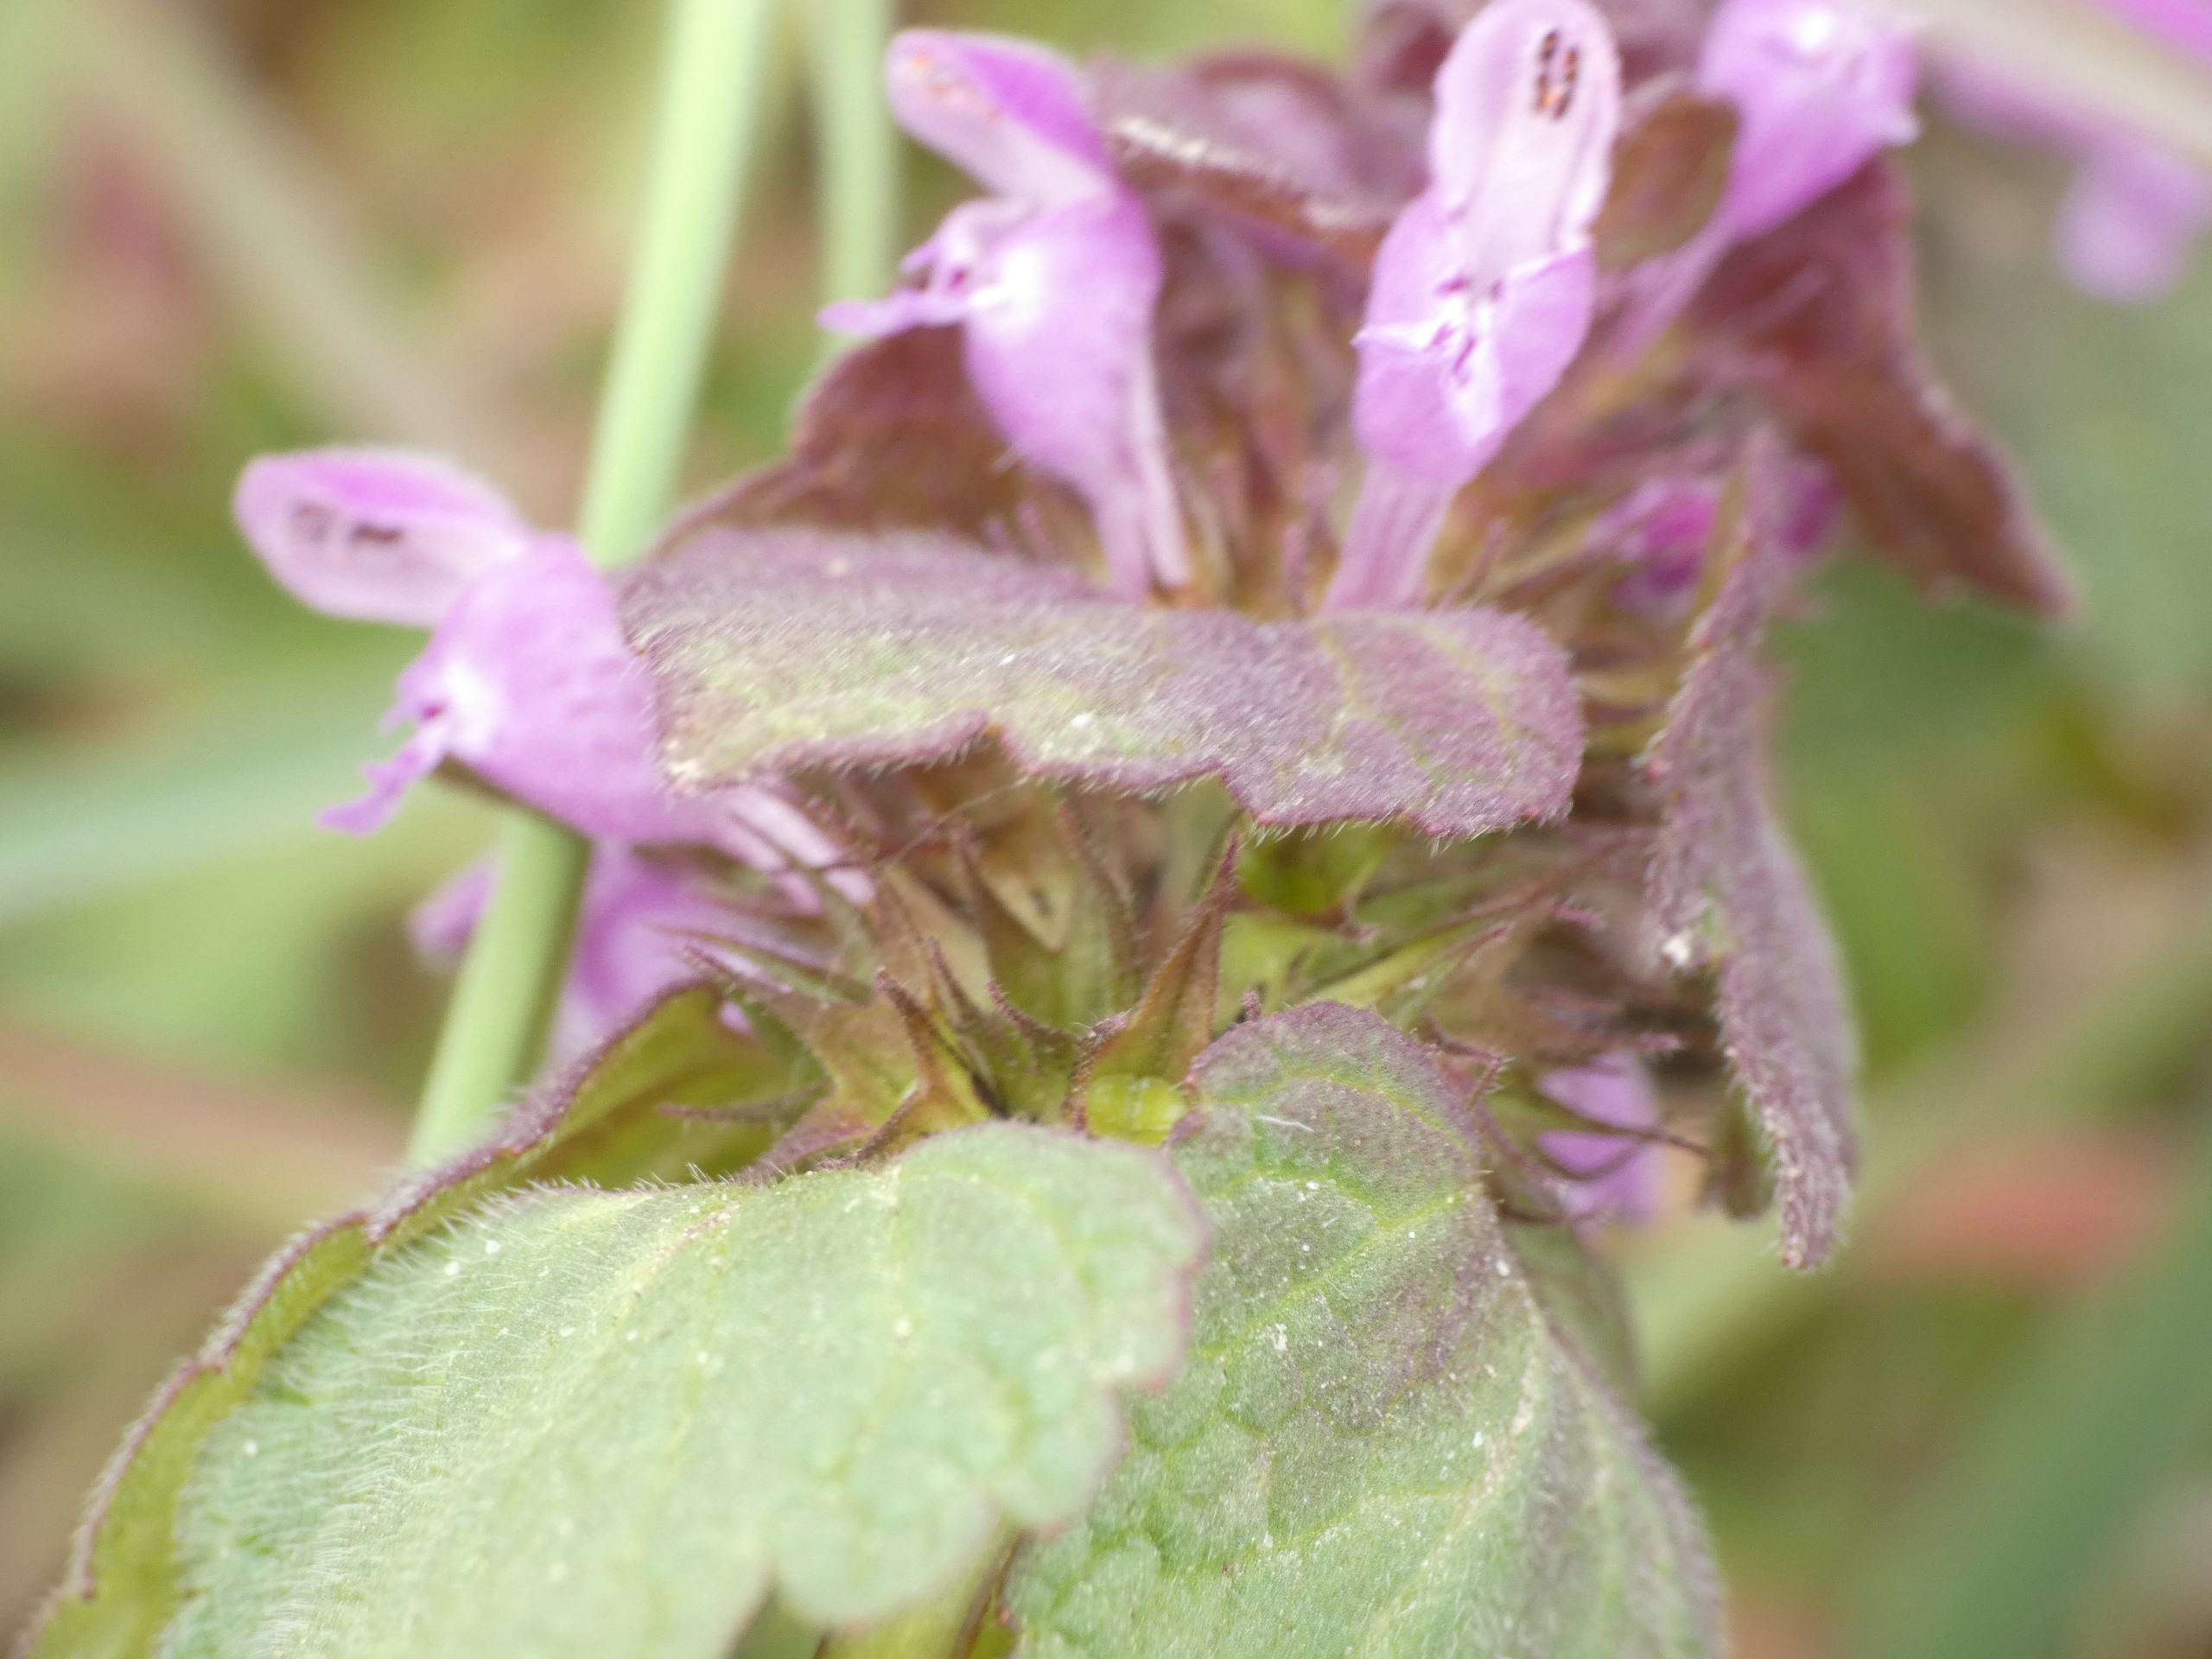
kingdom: Plantae
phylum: Tracheophyta
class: Magnoliopsida
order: Lamiales
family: Lamiaceae
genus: Lamium
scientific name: Lamium purpureum
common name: Rød tvetand
